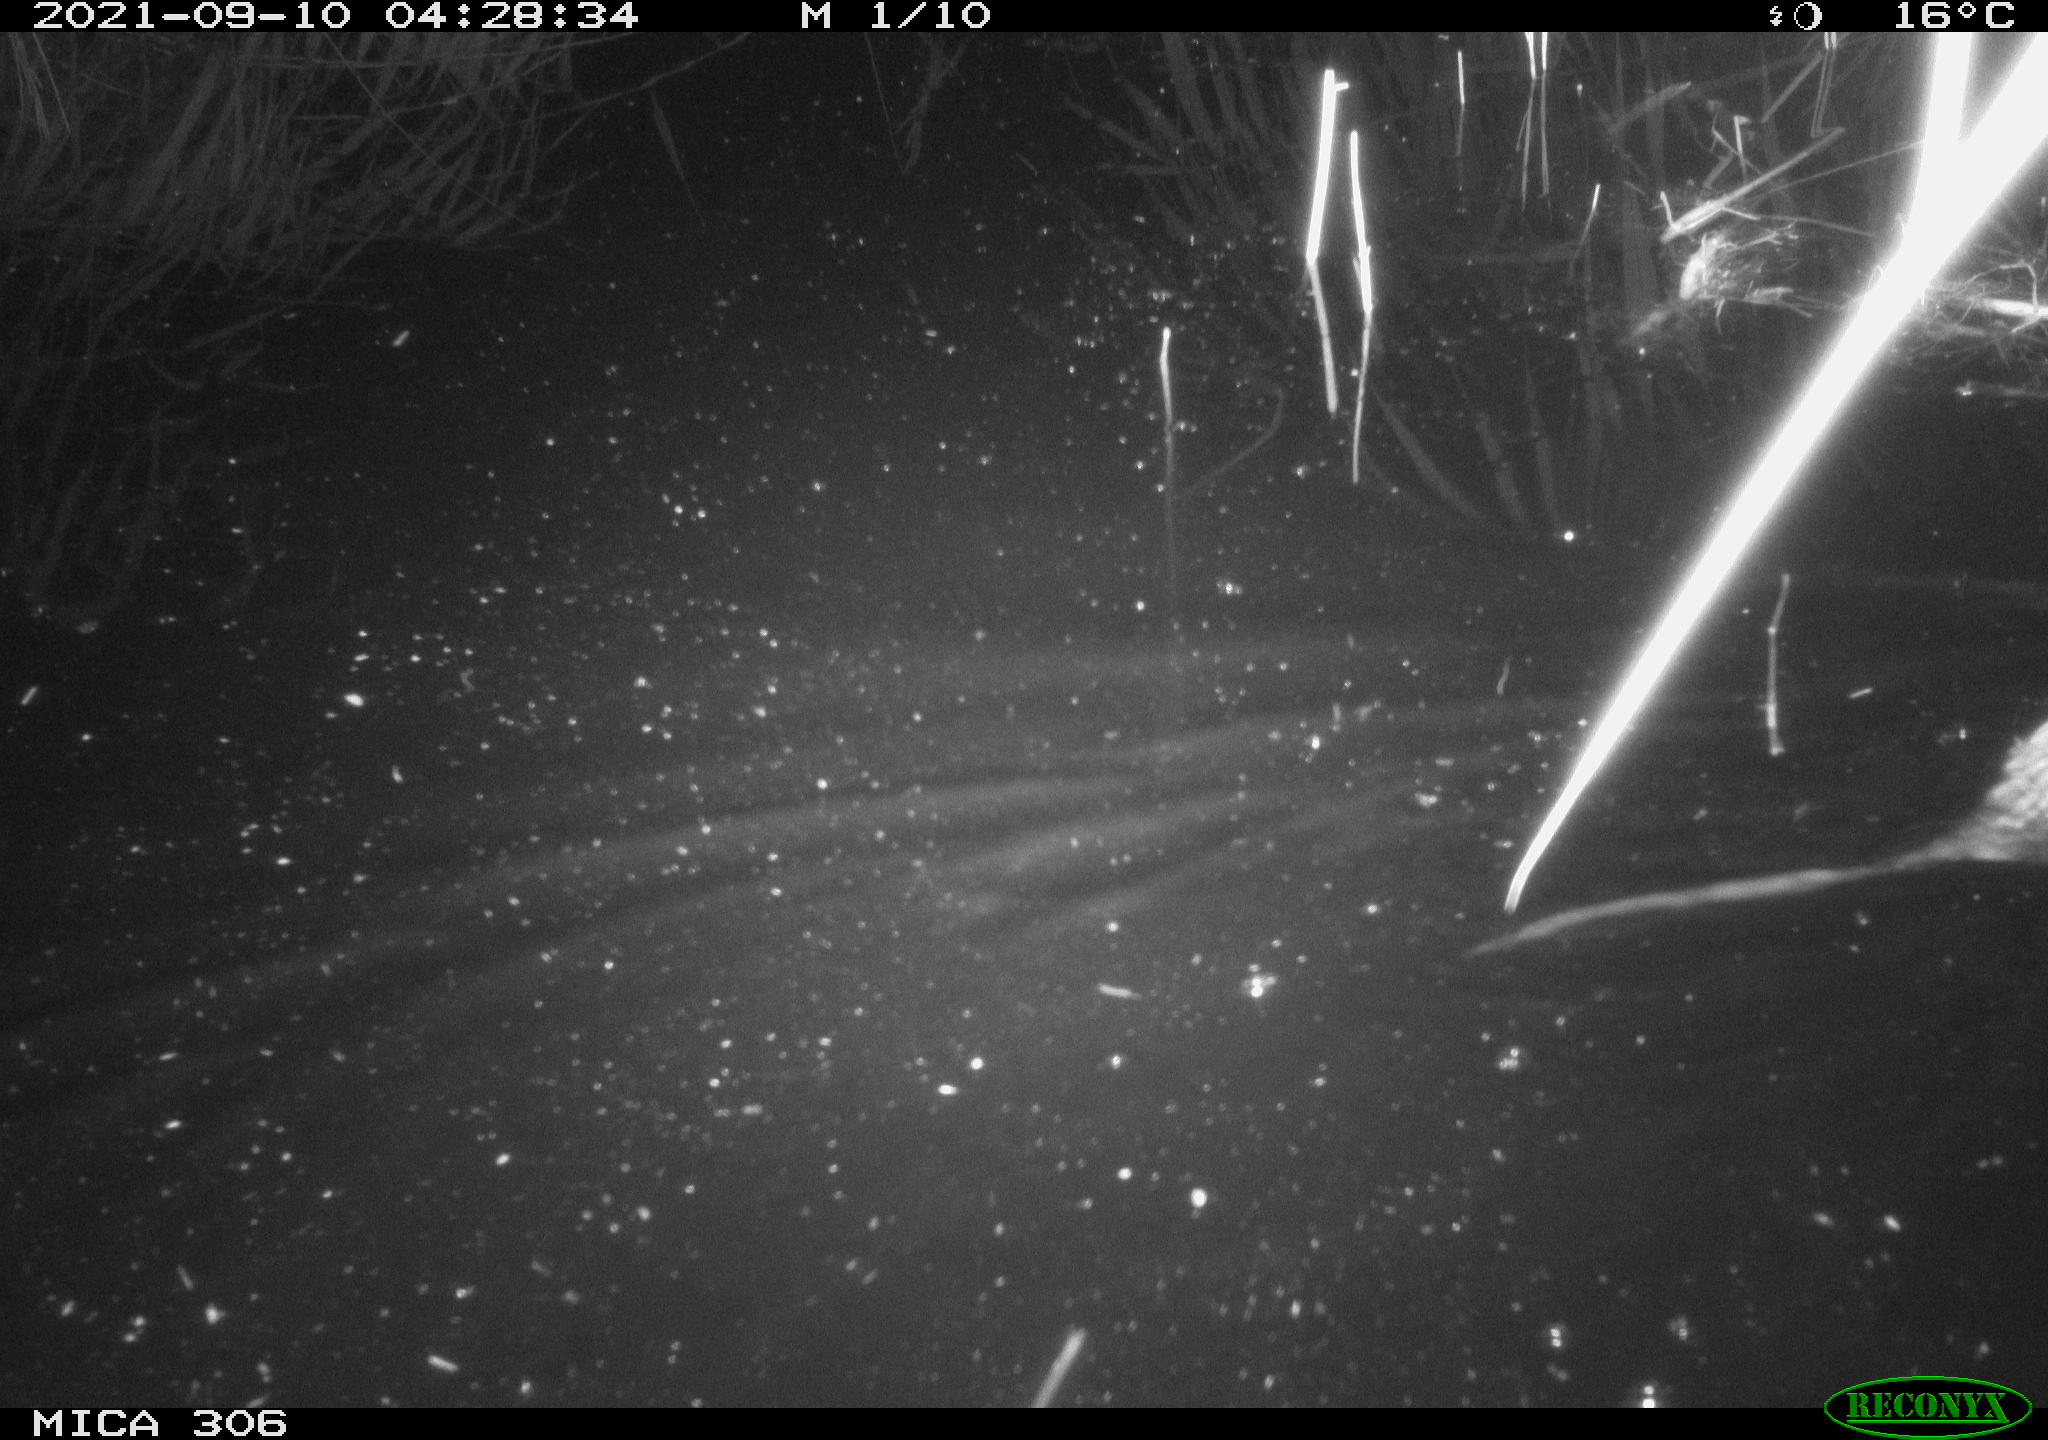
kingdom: Animalia
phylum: Chordata
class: Mammalia
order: Rodentia
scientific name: Rodentia
